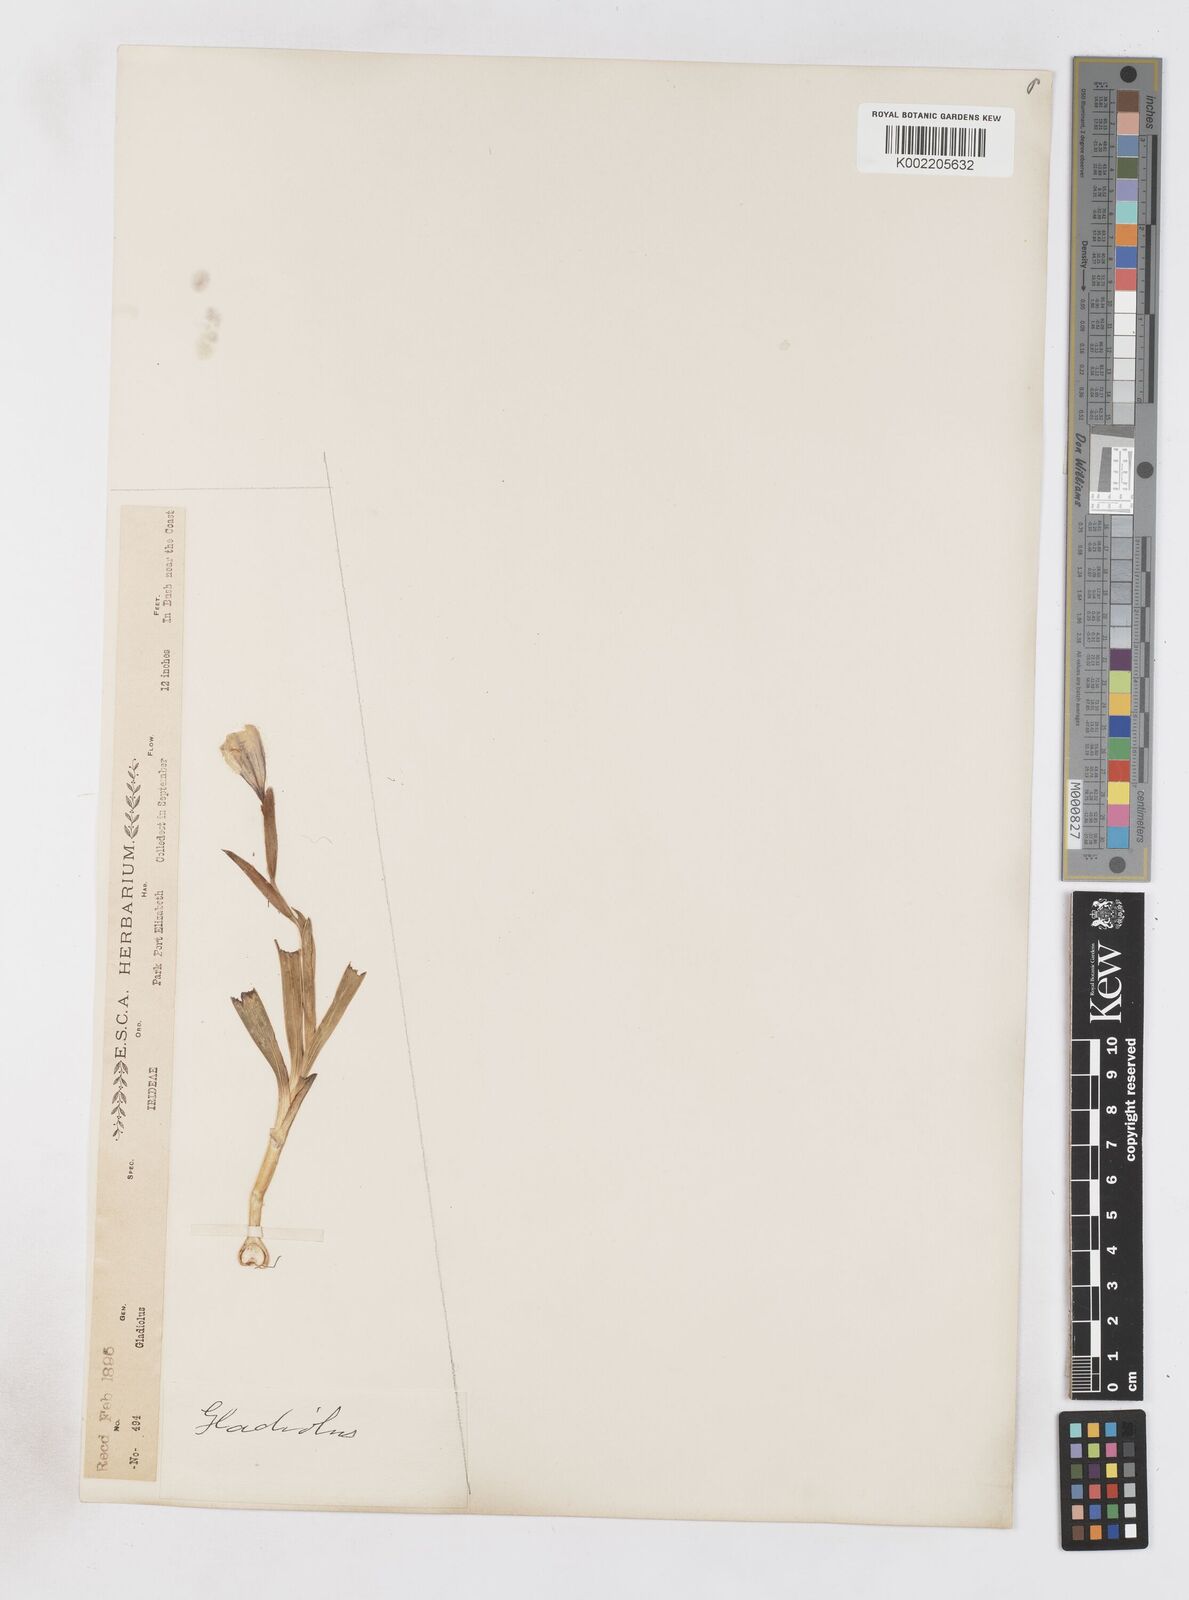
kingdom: Plantae
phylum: Tracheophyta
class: Liliopsida
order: Asparagales
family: Iridaceae
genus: Gladiolus
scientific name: Gladiolus grandiflorus
